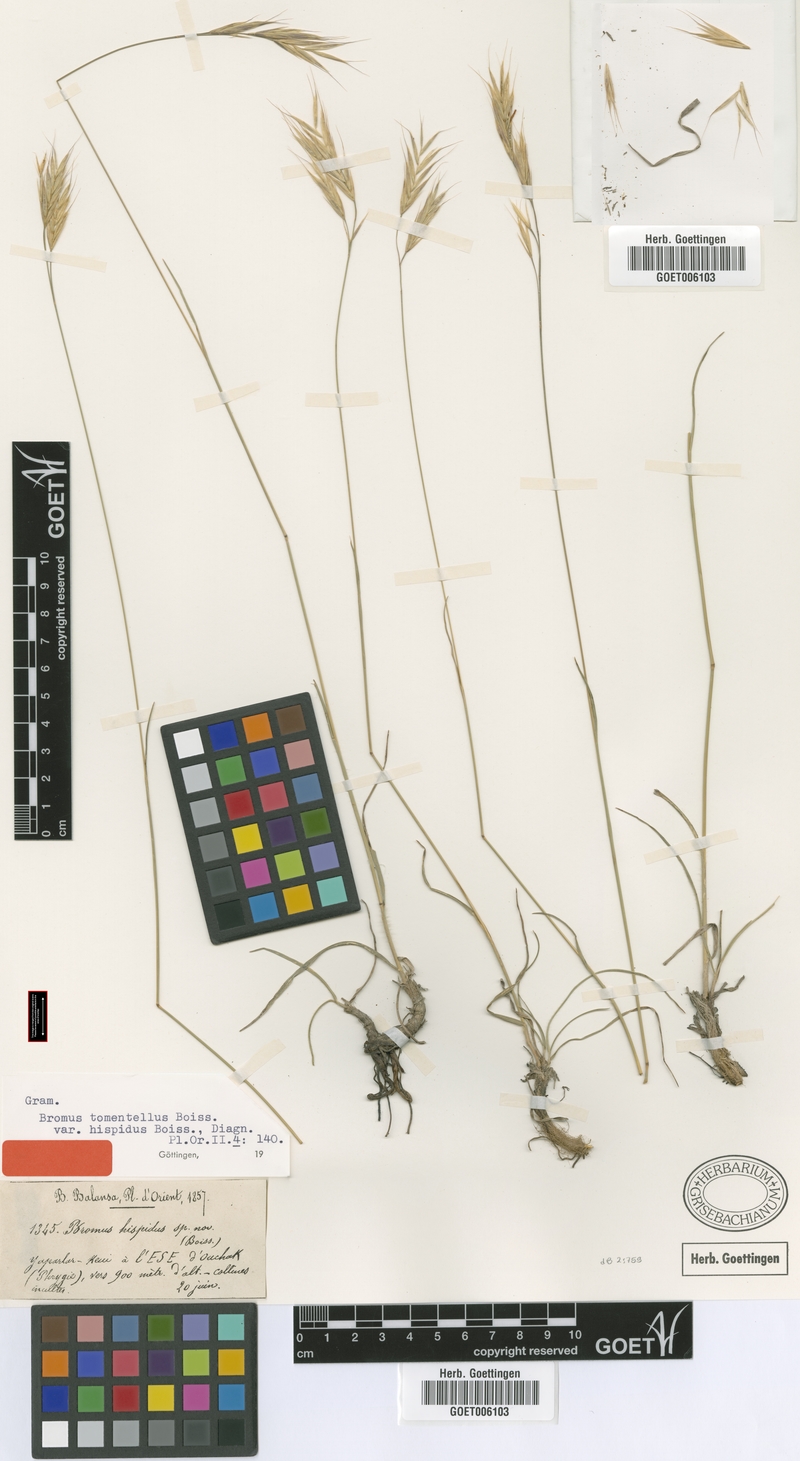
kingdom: Plantae
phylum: Tracheophyta
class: Liliopsida
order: Poales
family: Poaceae
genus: Bromus
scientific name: Bromus tomentellus
